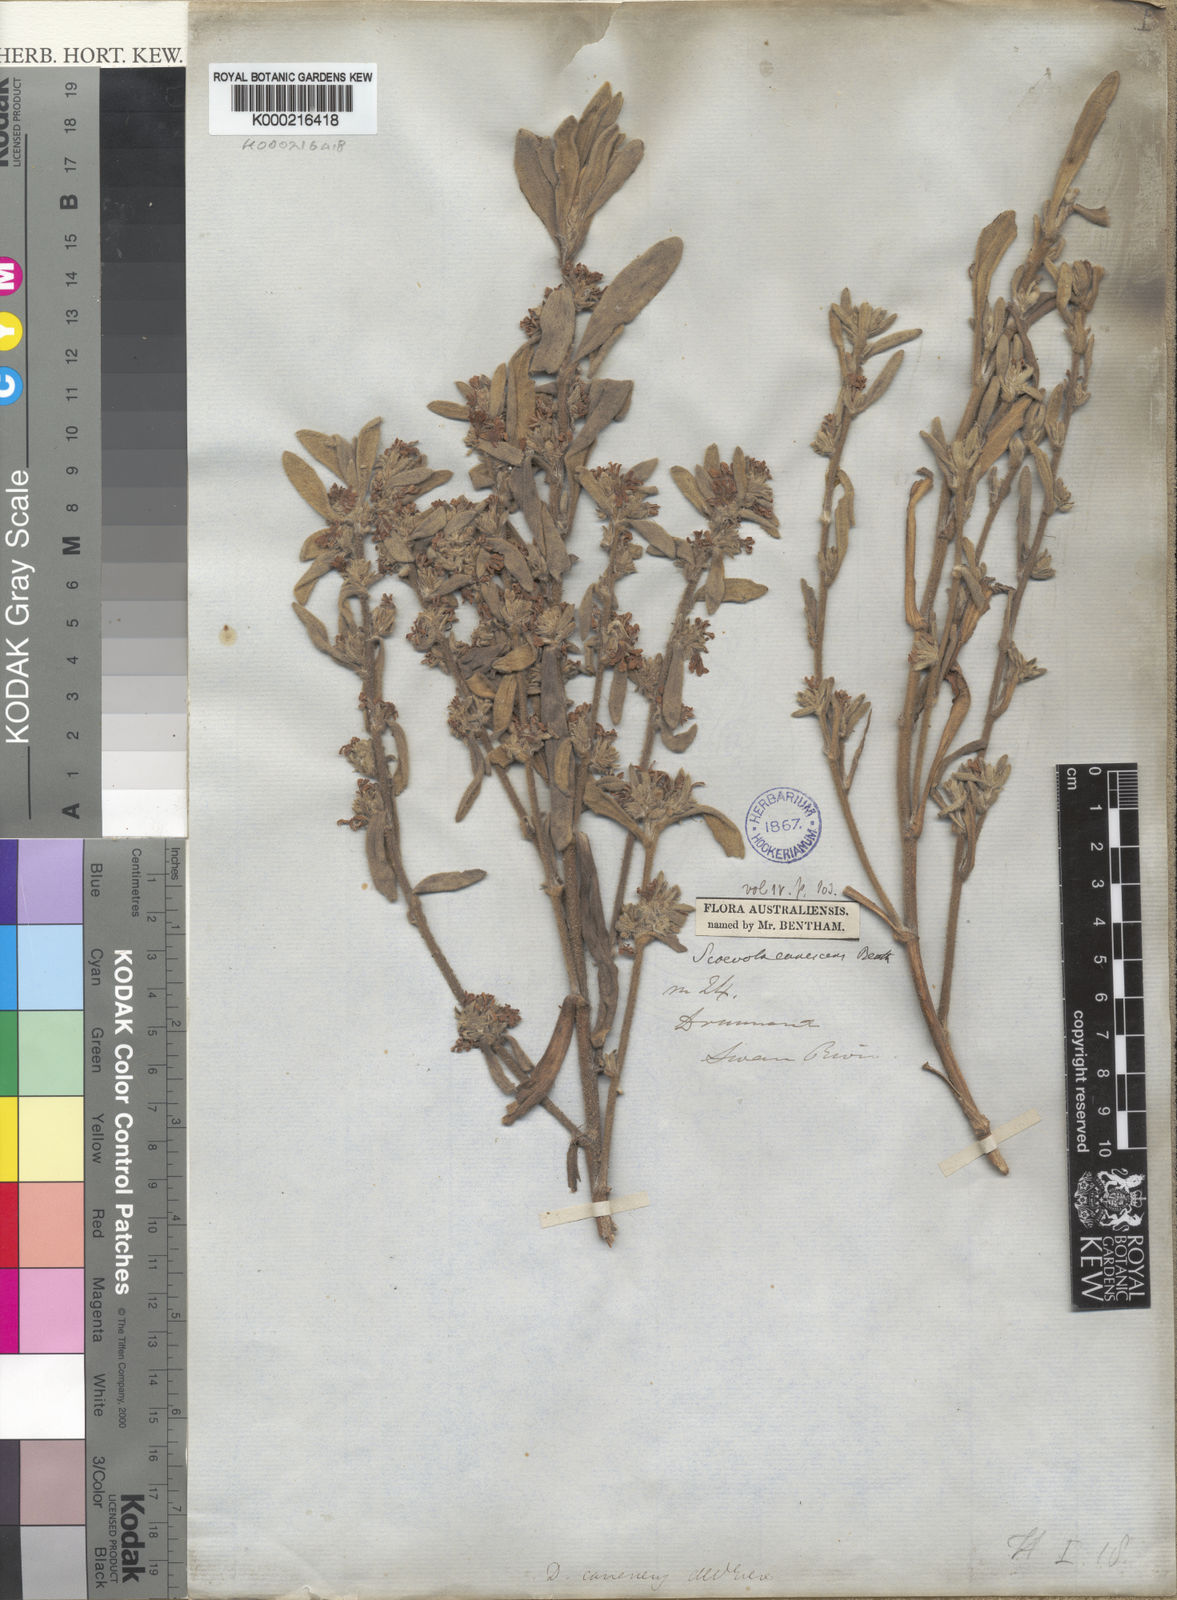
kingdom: Plantae
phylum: Tracheophyta
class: Magnoliopsida
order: Asterales
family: Goodeniaceae
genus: Scaevola
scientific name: Scaevola canescens
